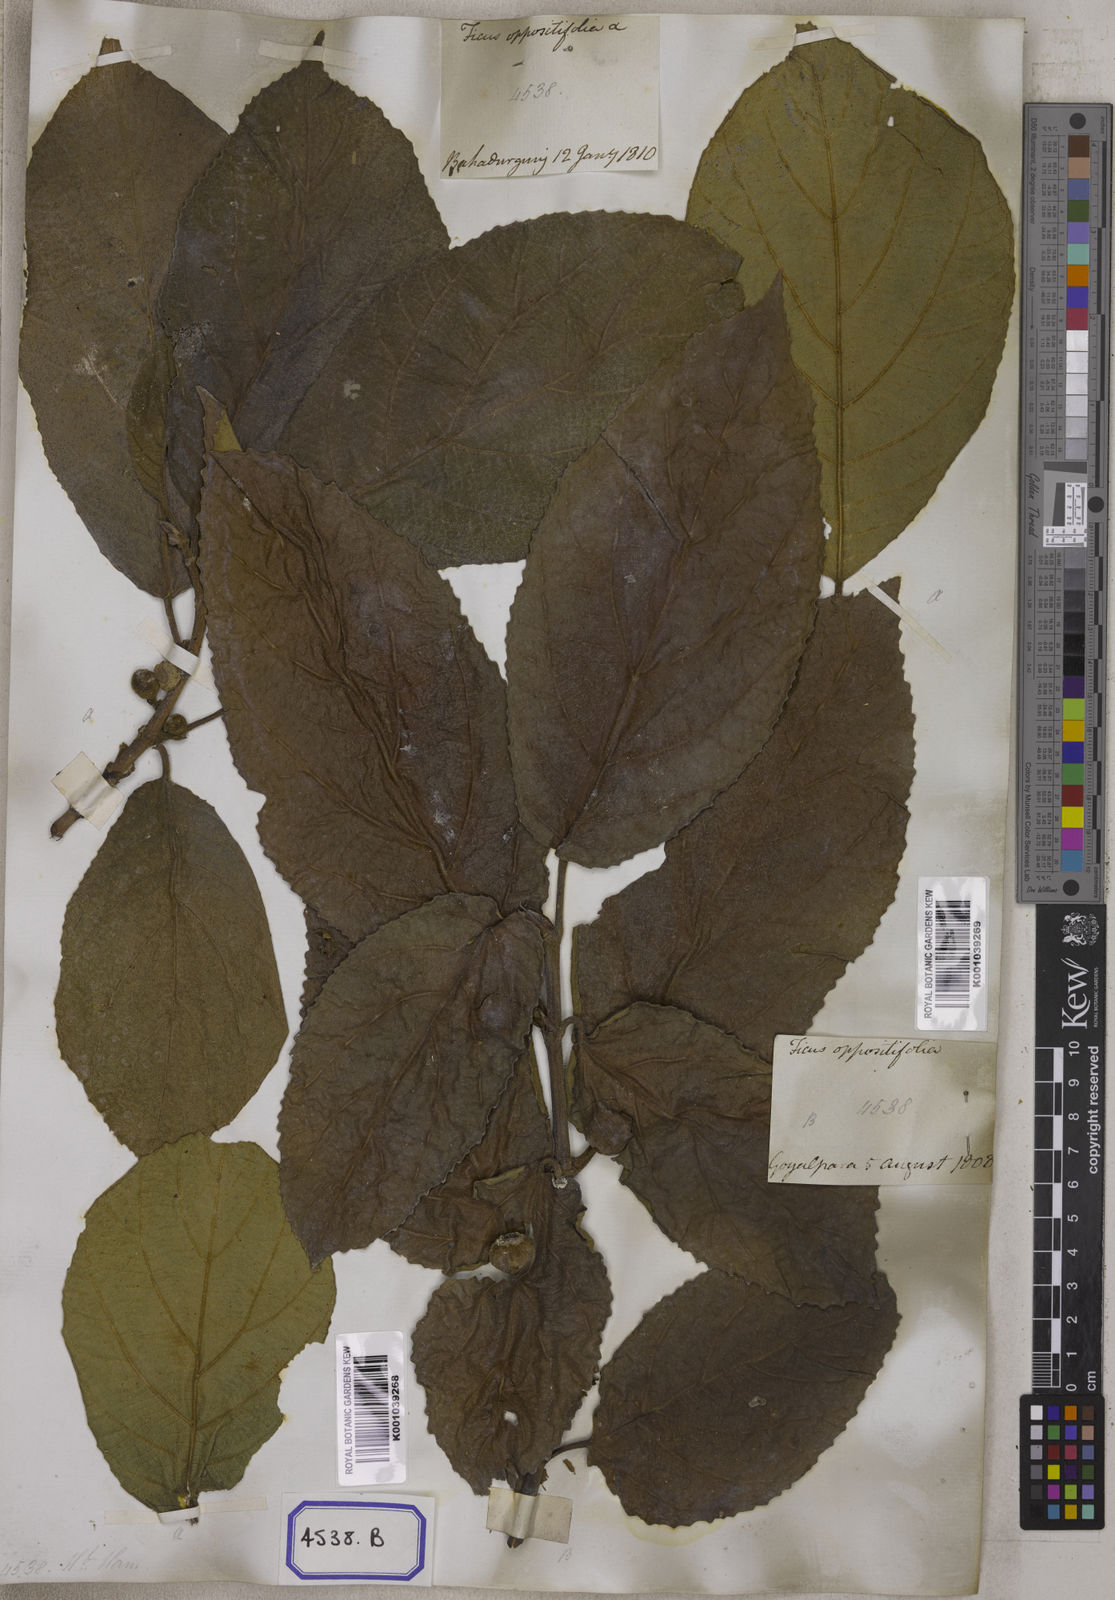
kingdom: Plantae
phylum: Tracheophyta
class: Magnoliopsida
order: Rosales
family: Moraceae
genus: Ficus
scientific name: Ficus hispida
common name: Hairy fig
